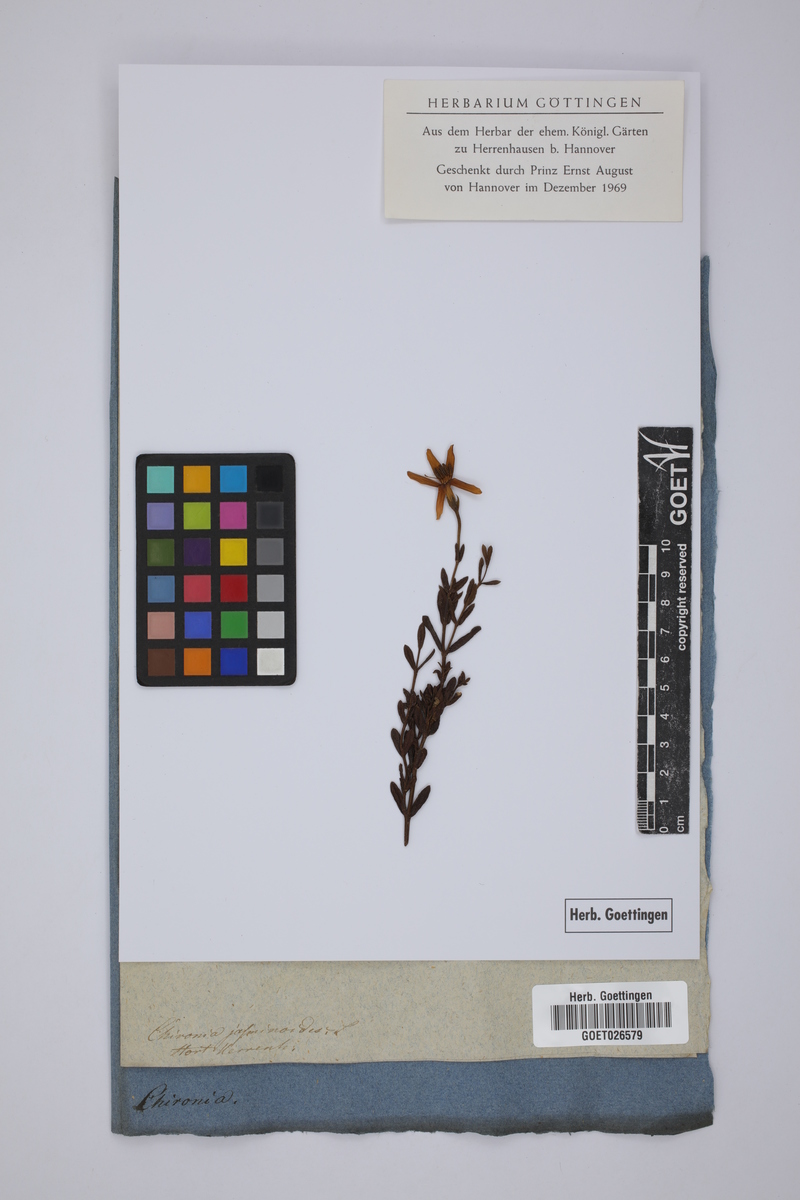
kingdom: Plantae
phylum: Tracheophyta
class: Magnoliopsida
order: Gentianales
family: Gentianaceae
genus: Chironia
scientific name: Chironia jasminoides
